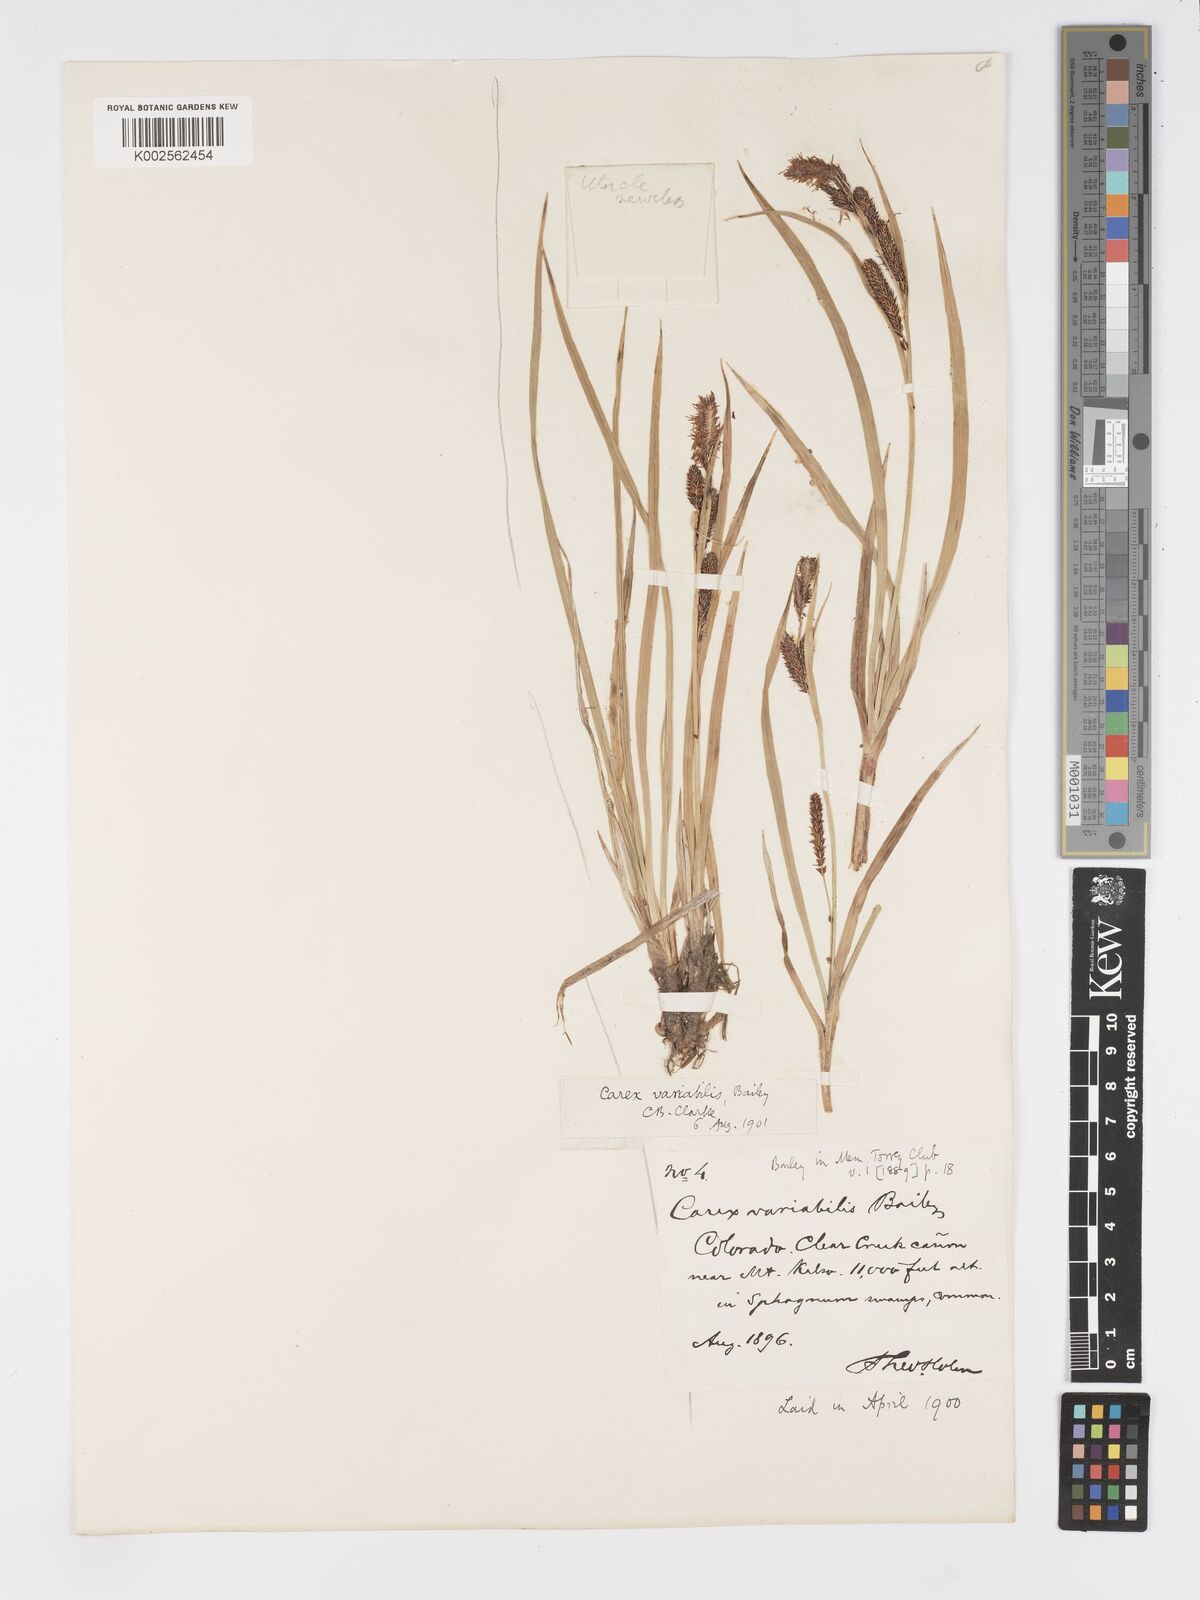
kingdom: Plantae
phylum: Tracheophyta
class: Liliopsida
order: Poales
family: Cyperaceae
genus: Carex
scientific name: Carex
